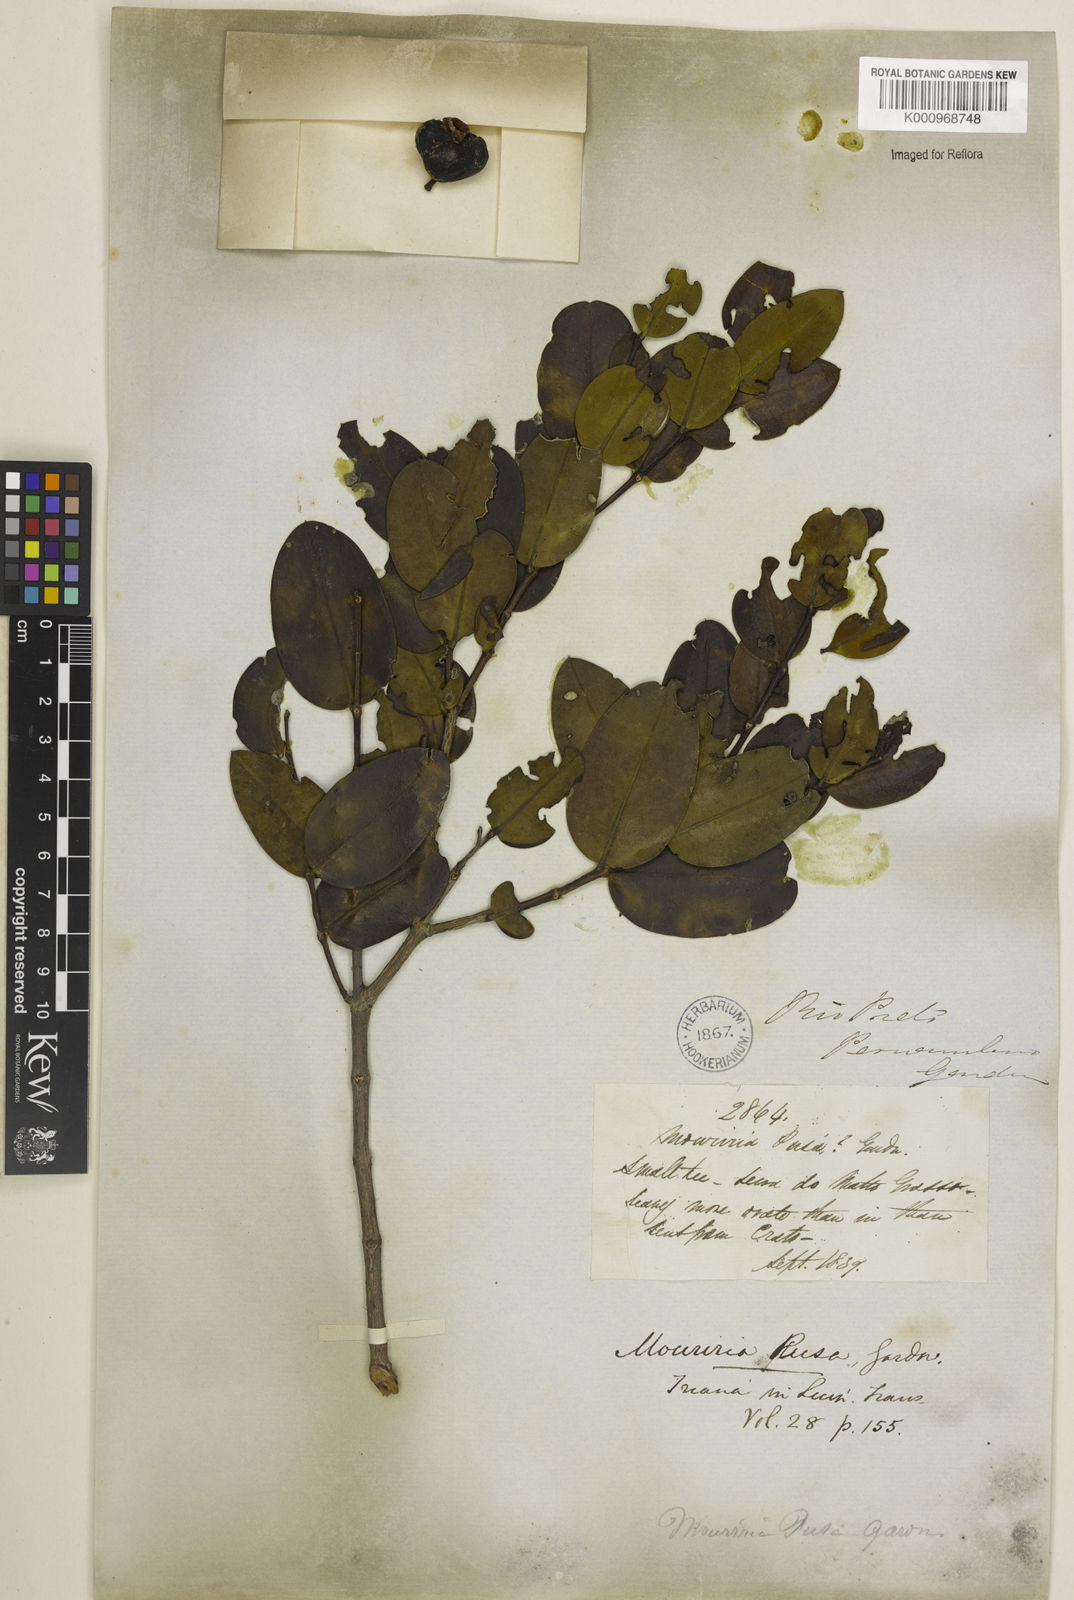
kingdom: Plantae
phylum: Tracheophyta
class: Magnoliopsida
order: Myrtales
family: Melastomataceae
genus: Mouriri
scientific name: Mouriri pusa
